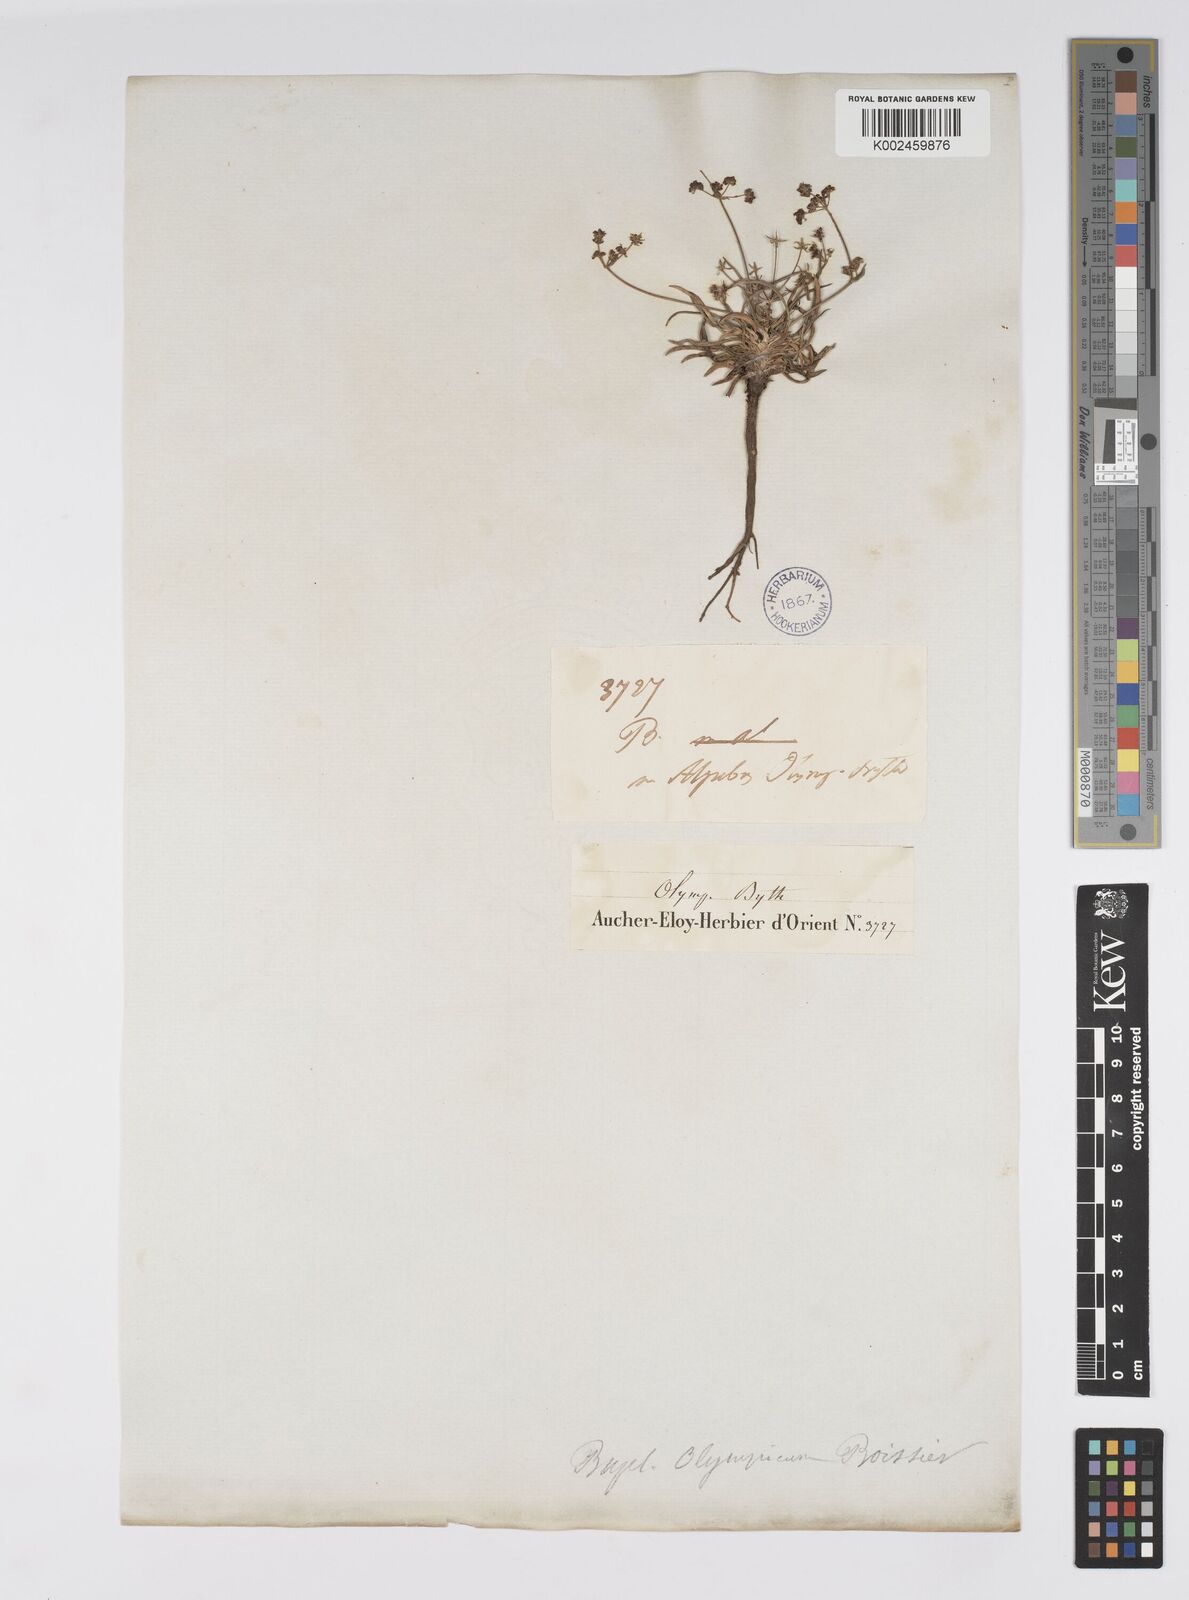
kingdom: Plantae
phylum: Tracheophyta
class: Magnoliopsida
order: Apiales
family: Apiaceae
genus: Bupleurum
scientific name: Bupleurum falcatum
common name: Sickle-leaved hare's-ear
